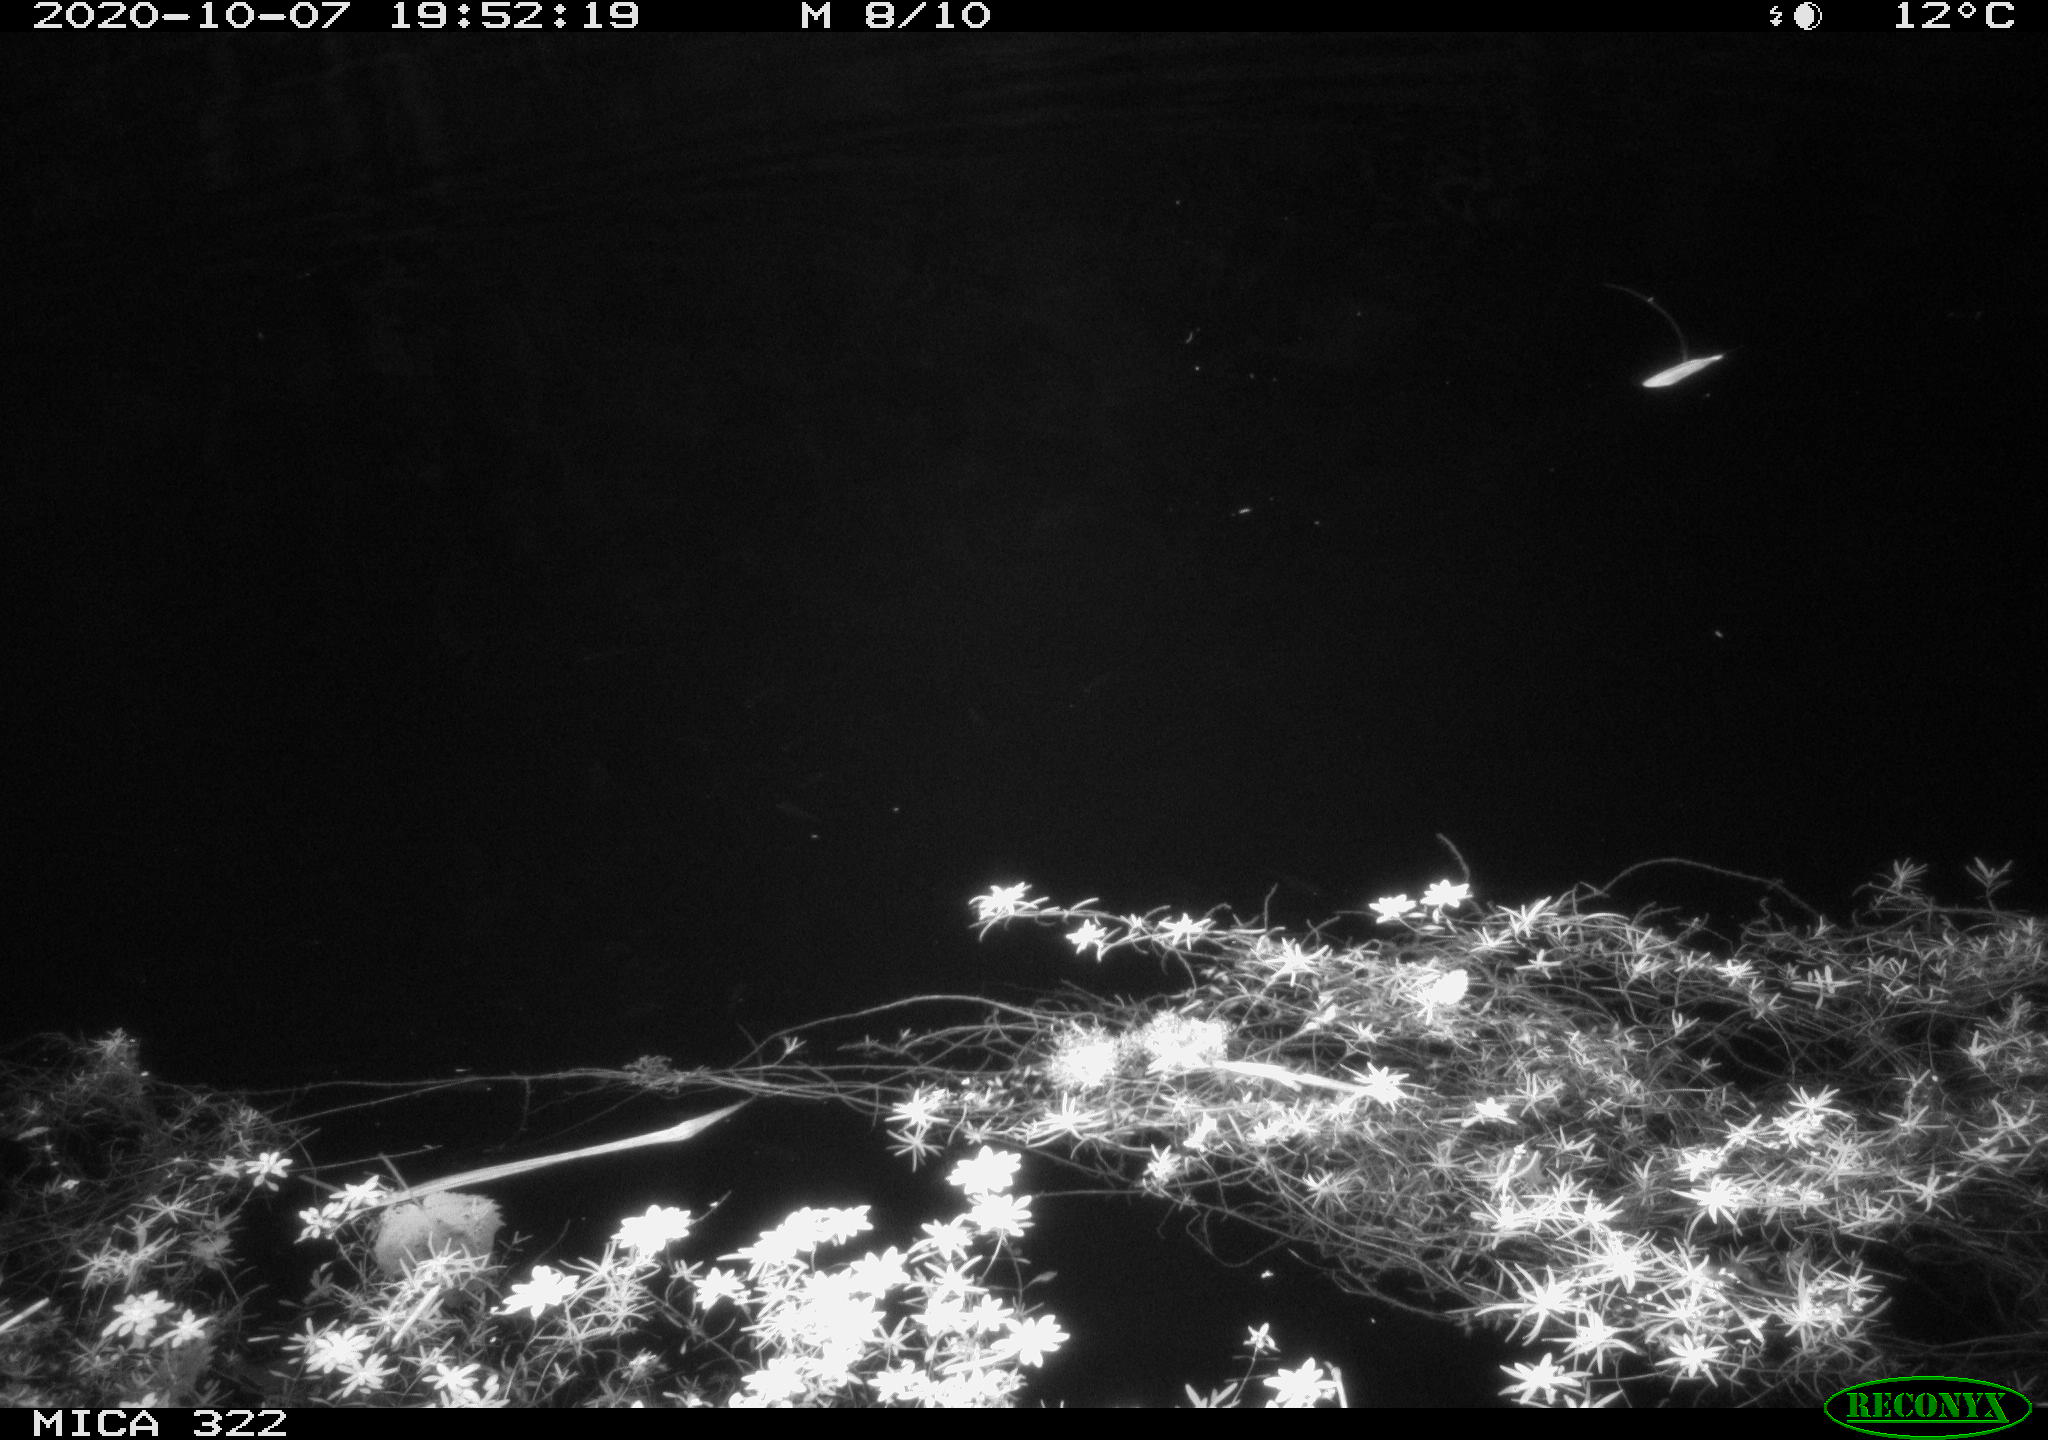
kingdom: Animalia
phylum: Chordata
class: Mammalia
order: Rodentia
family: Muridae
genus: Rattus
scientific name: Rattus norvegicus
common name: Brown rat
